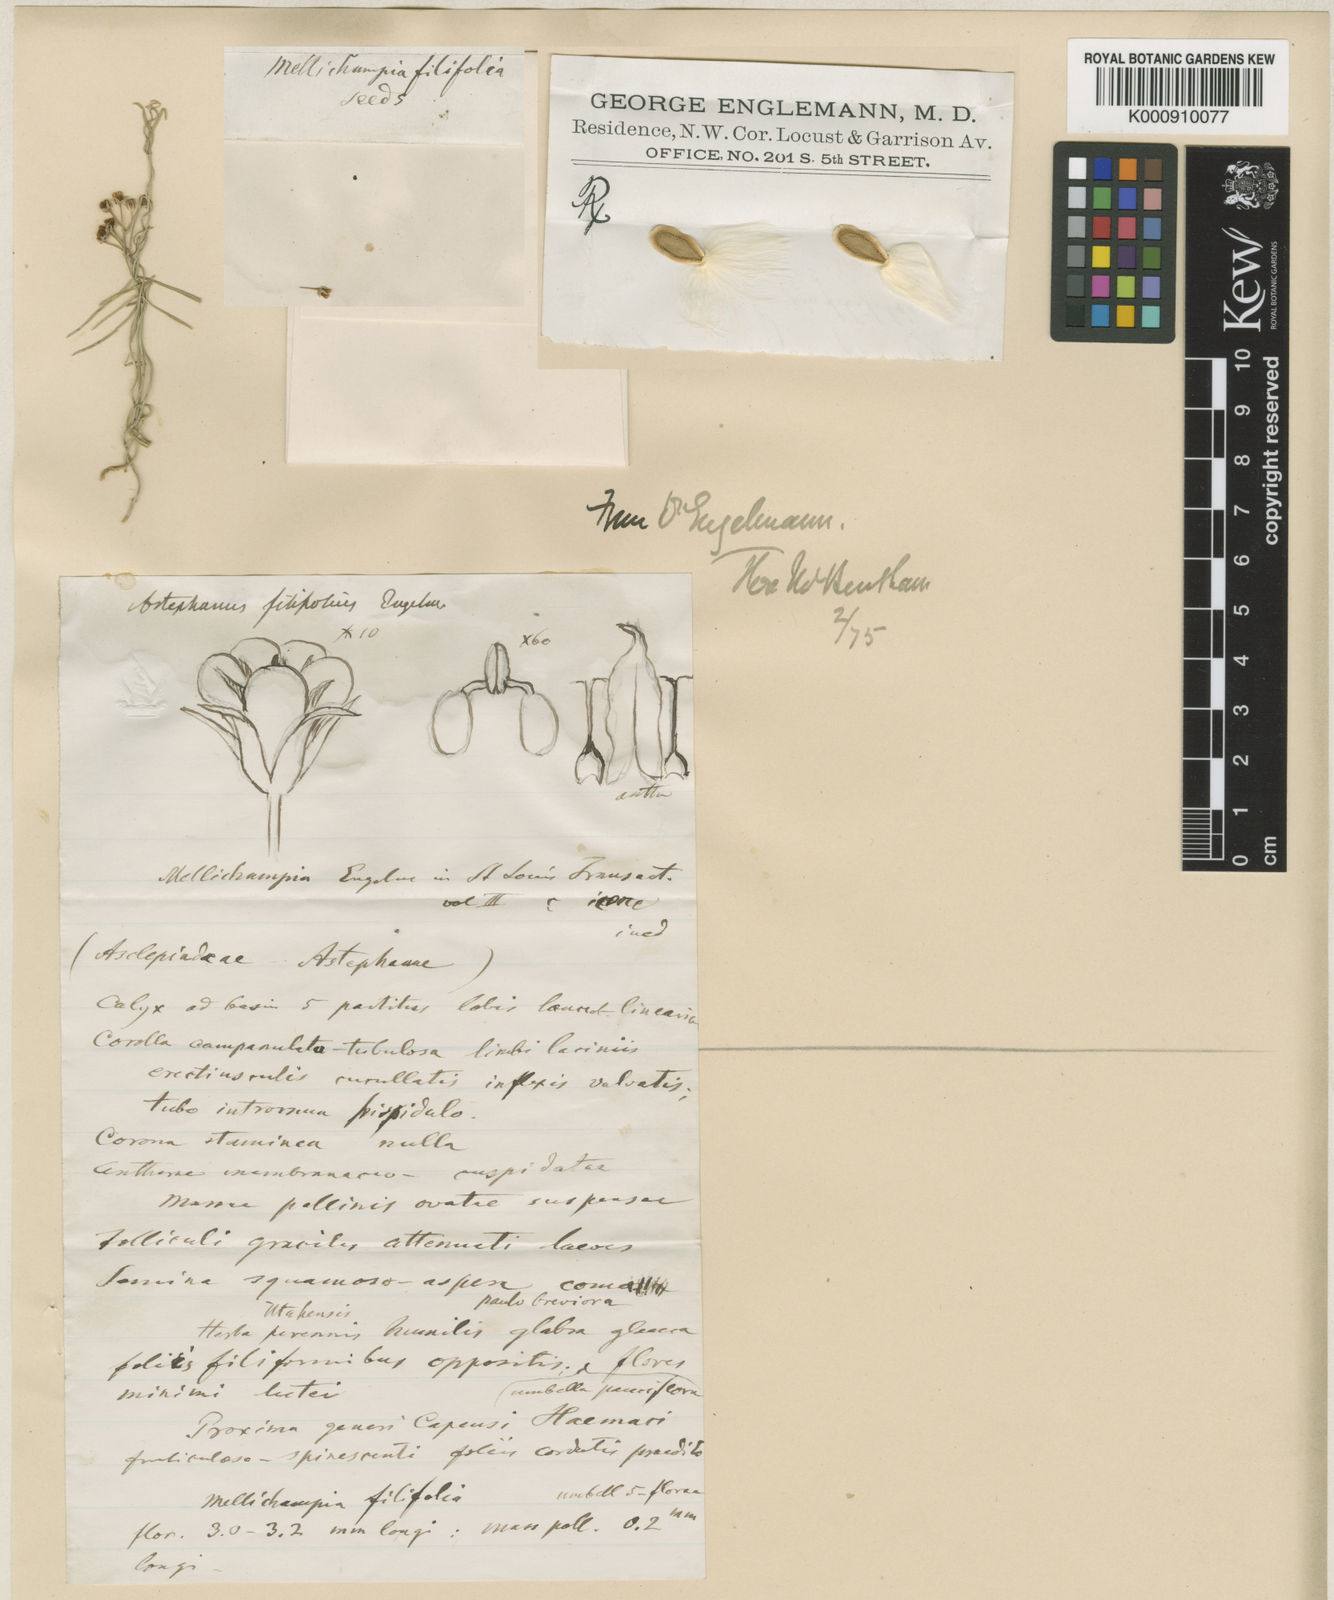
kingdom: Plantae
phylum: Tracheophyta
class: Magnoliopsida
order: Gentianales
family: Apocynaceae
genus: Astephanus
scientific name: Astephanus
